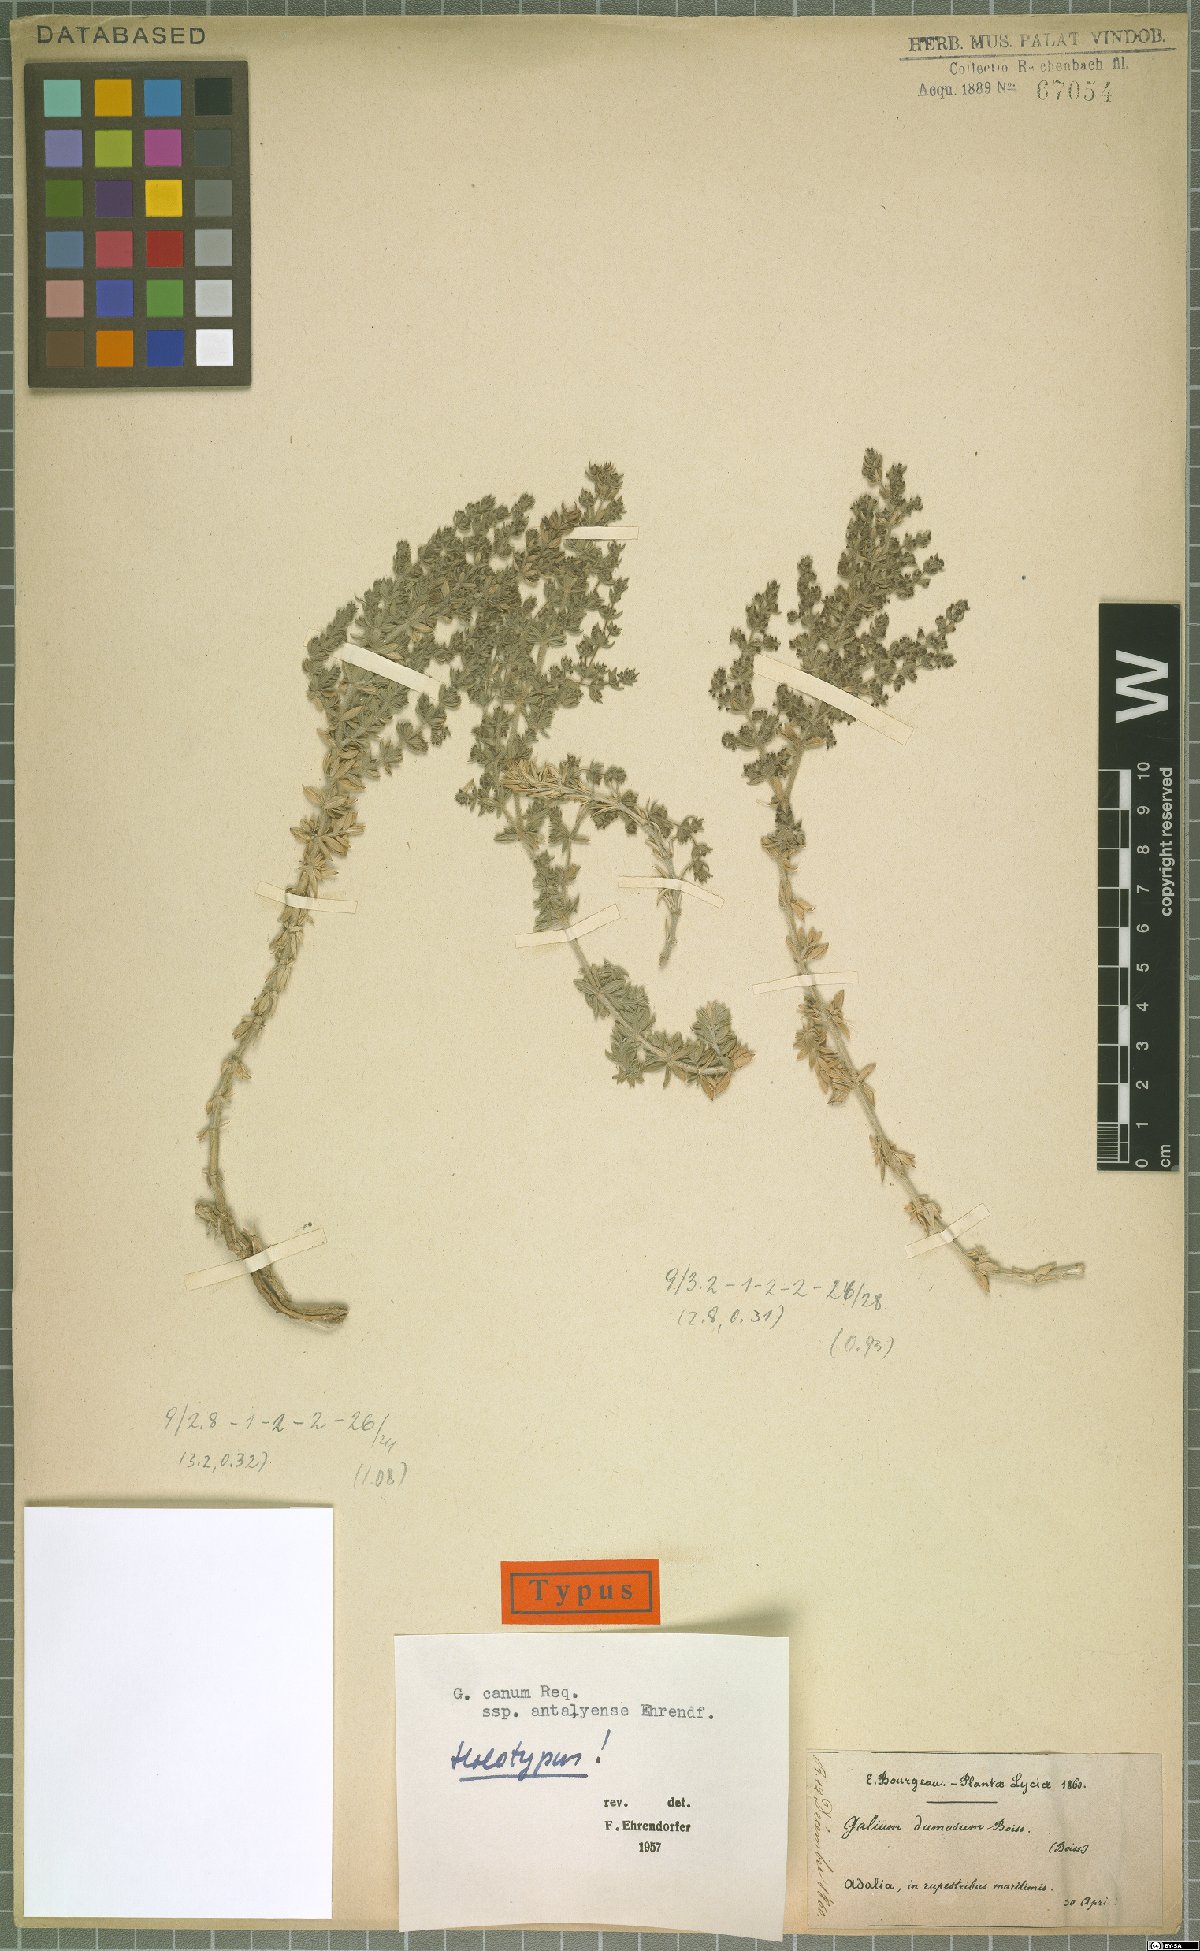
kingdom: Plantae
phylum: Tracheophyta
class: Magnoliopsida
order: Gentianales
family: Rubiaceae
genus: Galium
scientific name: Galium canum
